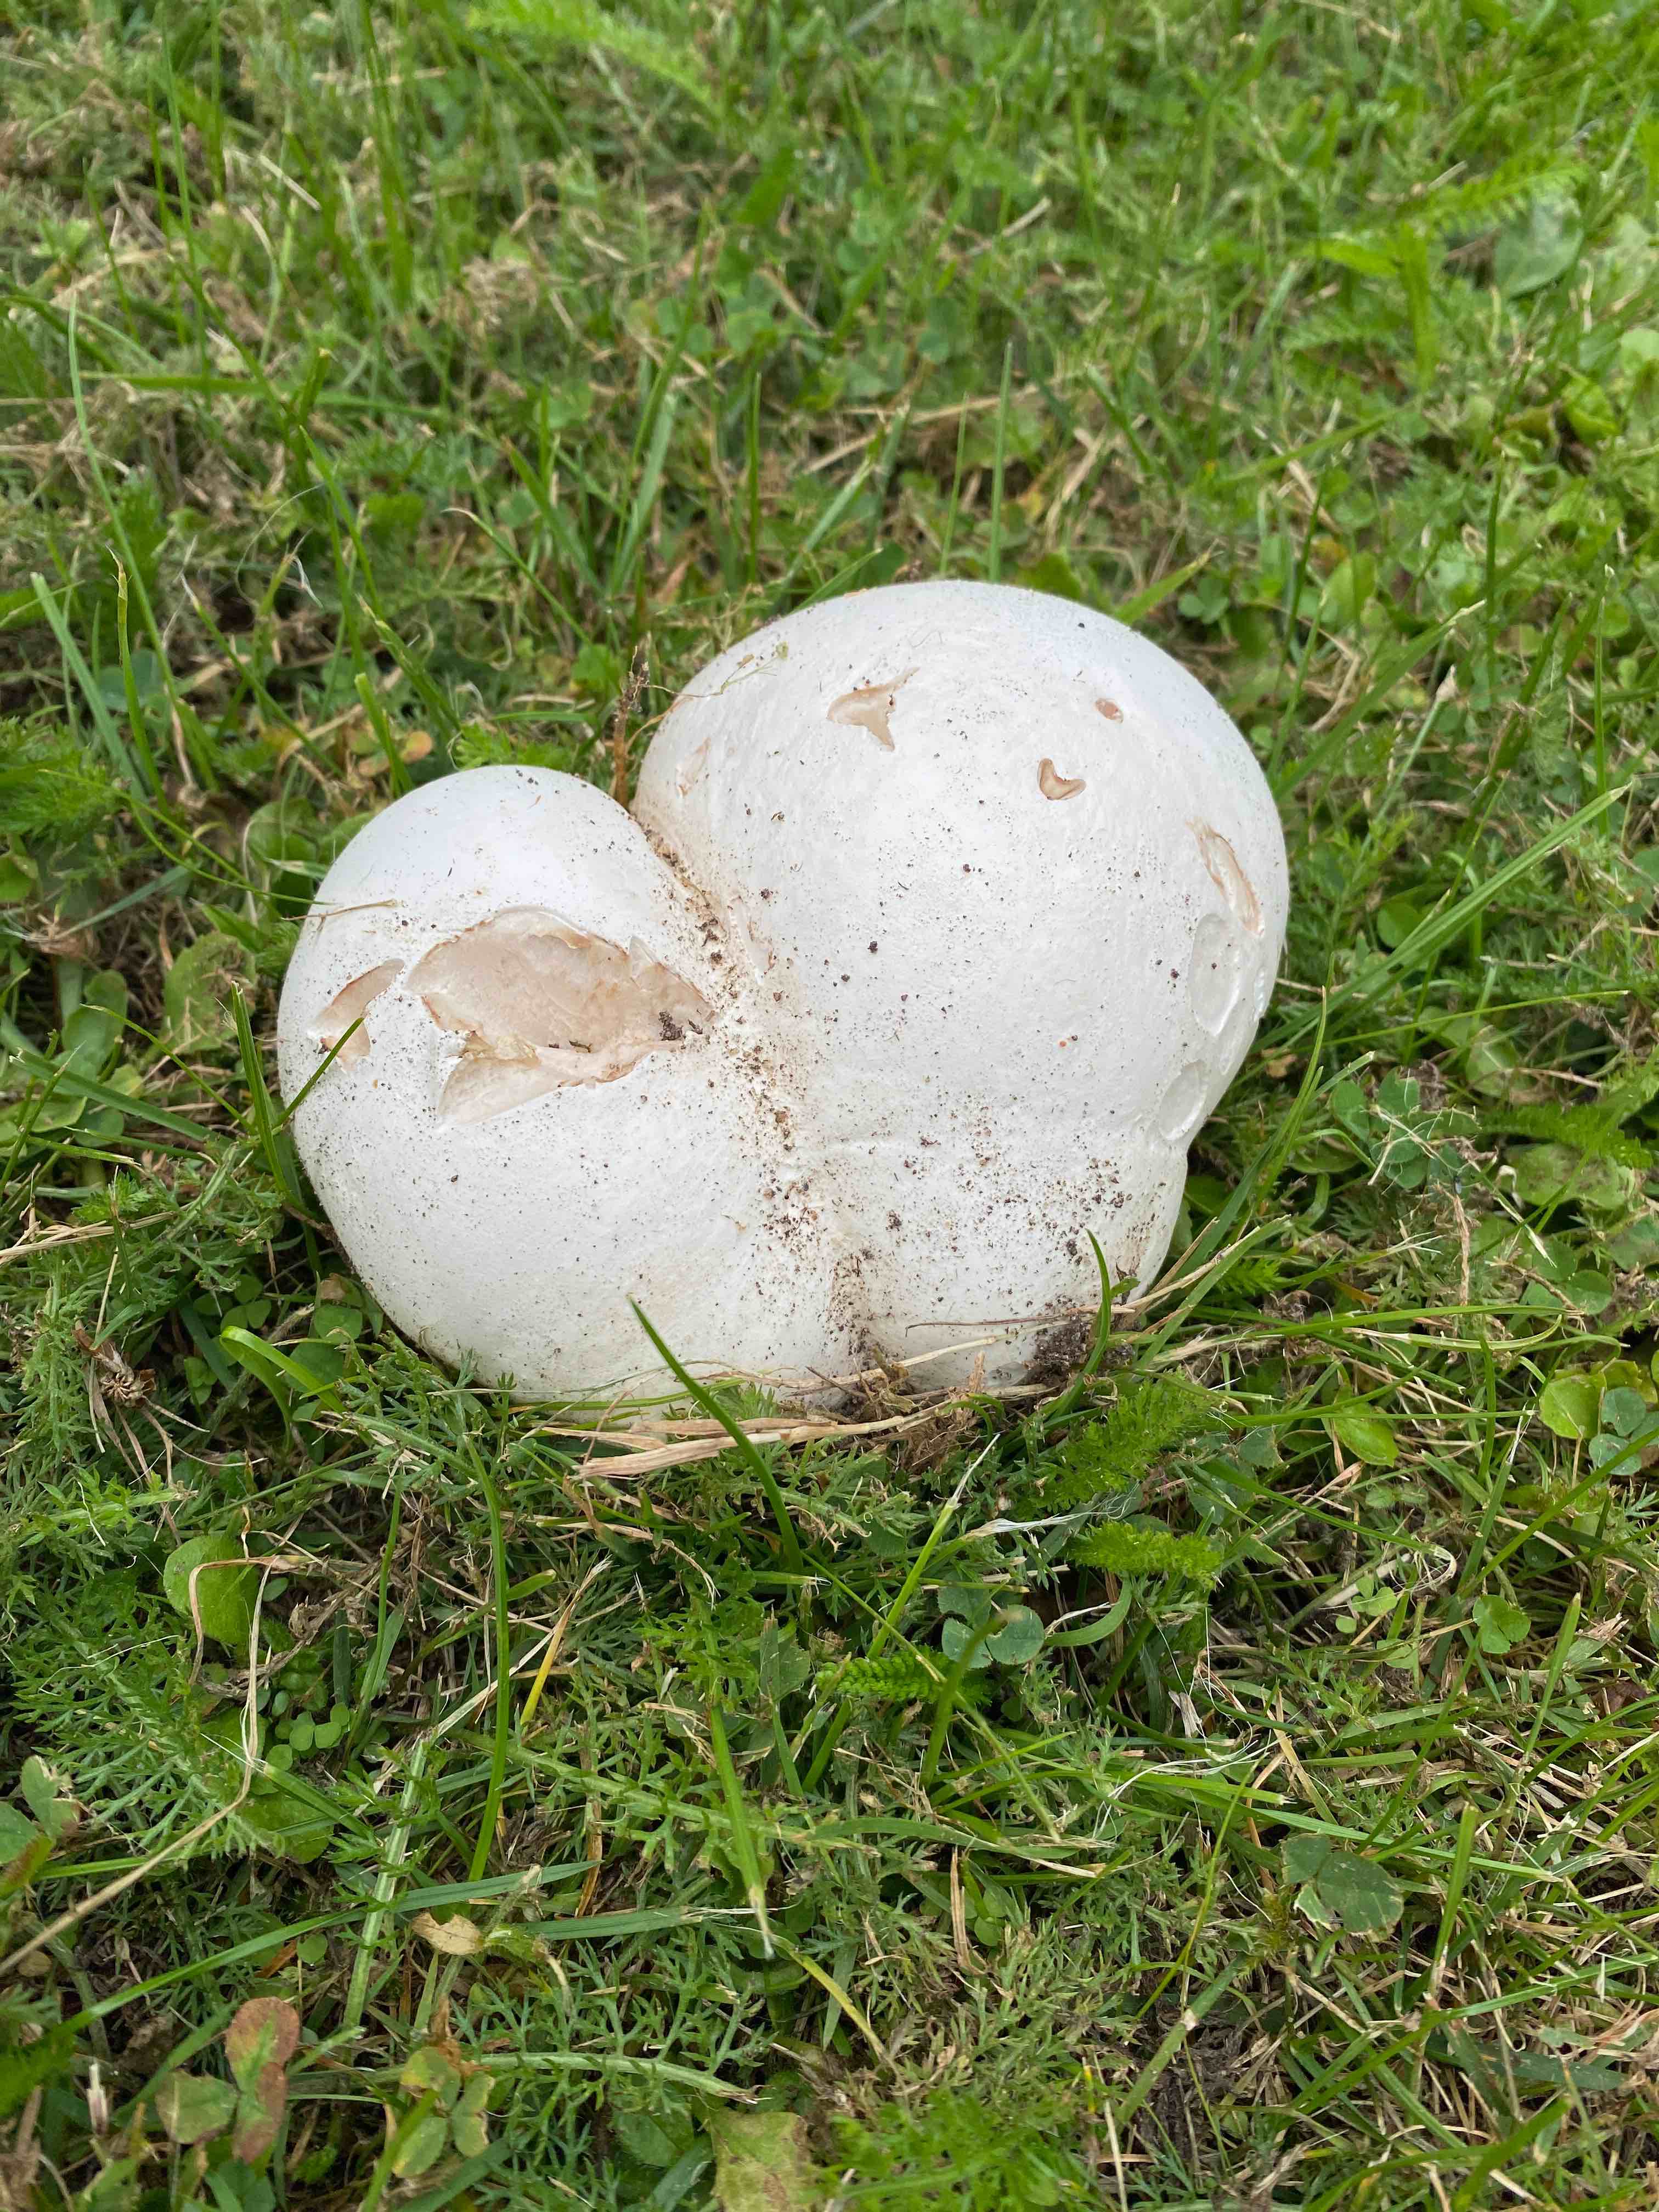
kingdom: Fungi
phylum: Basidiomycota
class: Agaricomycetes
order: Agaricales
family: Lycoperdaceae
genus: Calvatia
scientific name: Calvatia gigantea
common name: kæmpestøvbold
